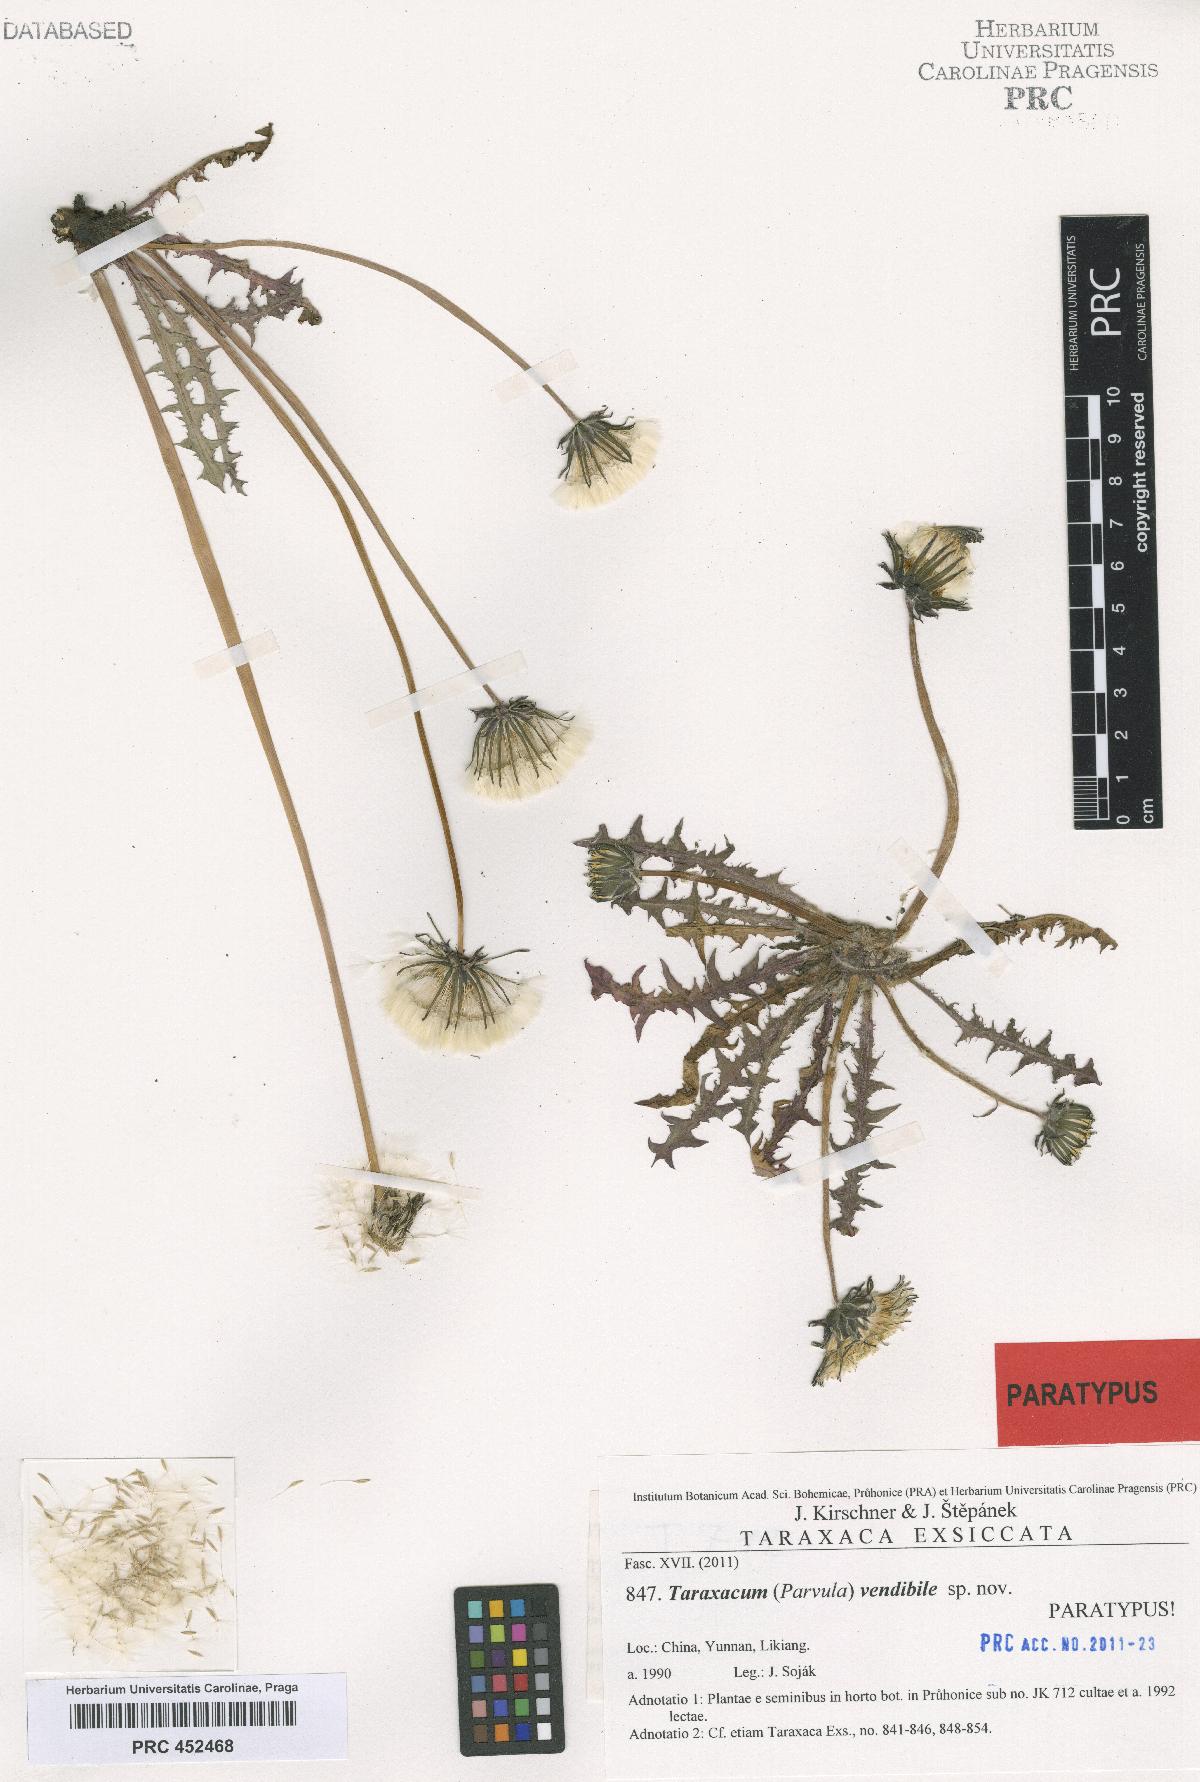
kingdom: Plantae
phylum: Tracheophyta
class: Magnoliopsida
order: Asterales
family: Asteraceae
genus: Taraxacum
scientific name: Taraxacum vendibile
